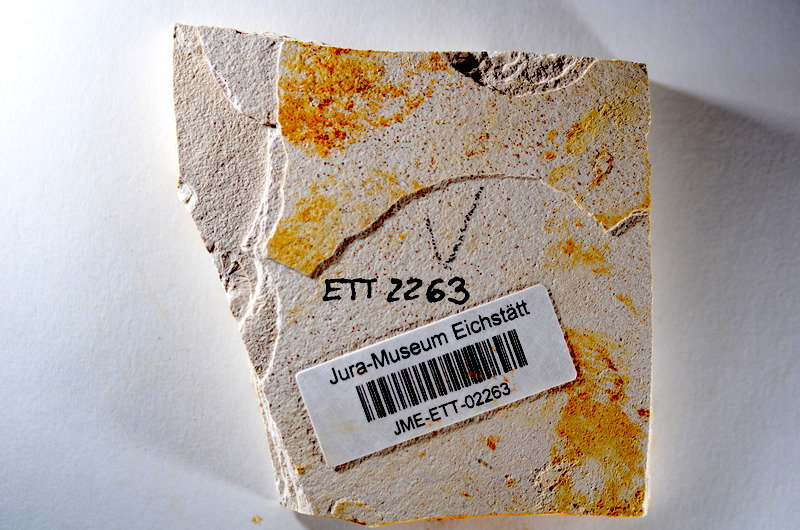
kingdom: Animalia
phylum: Chordata
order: Salmoniformes
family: Orthogonikleithridae
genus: Orthogonikleithrus
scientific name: Orthogonikleithrus hoelli
